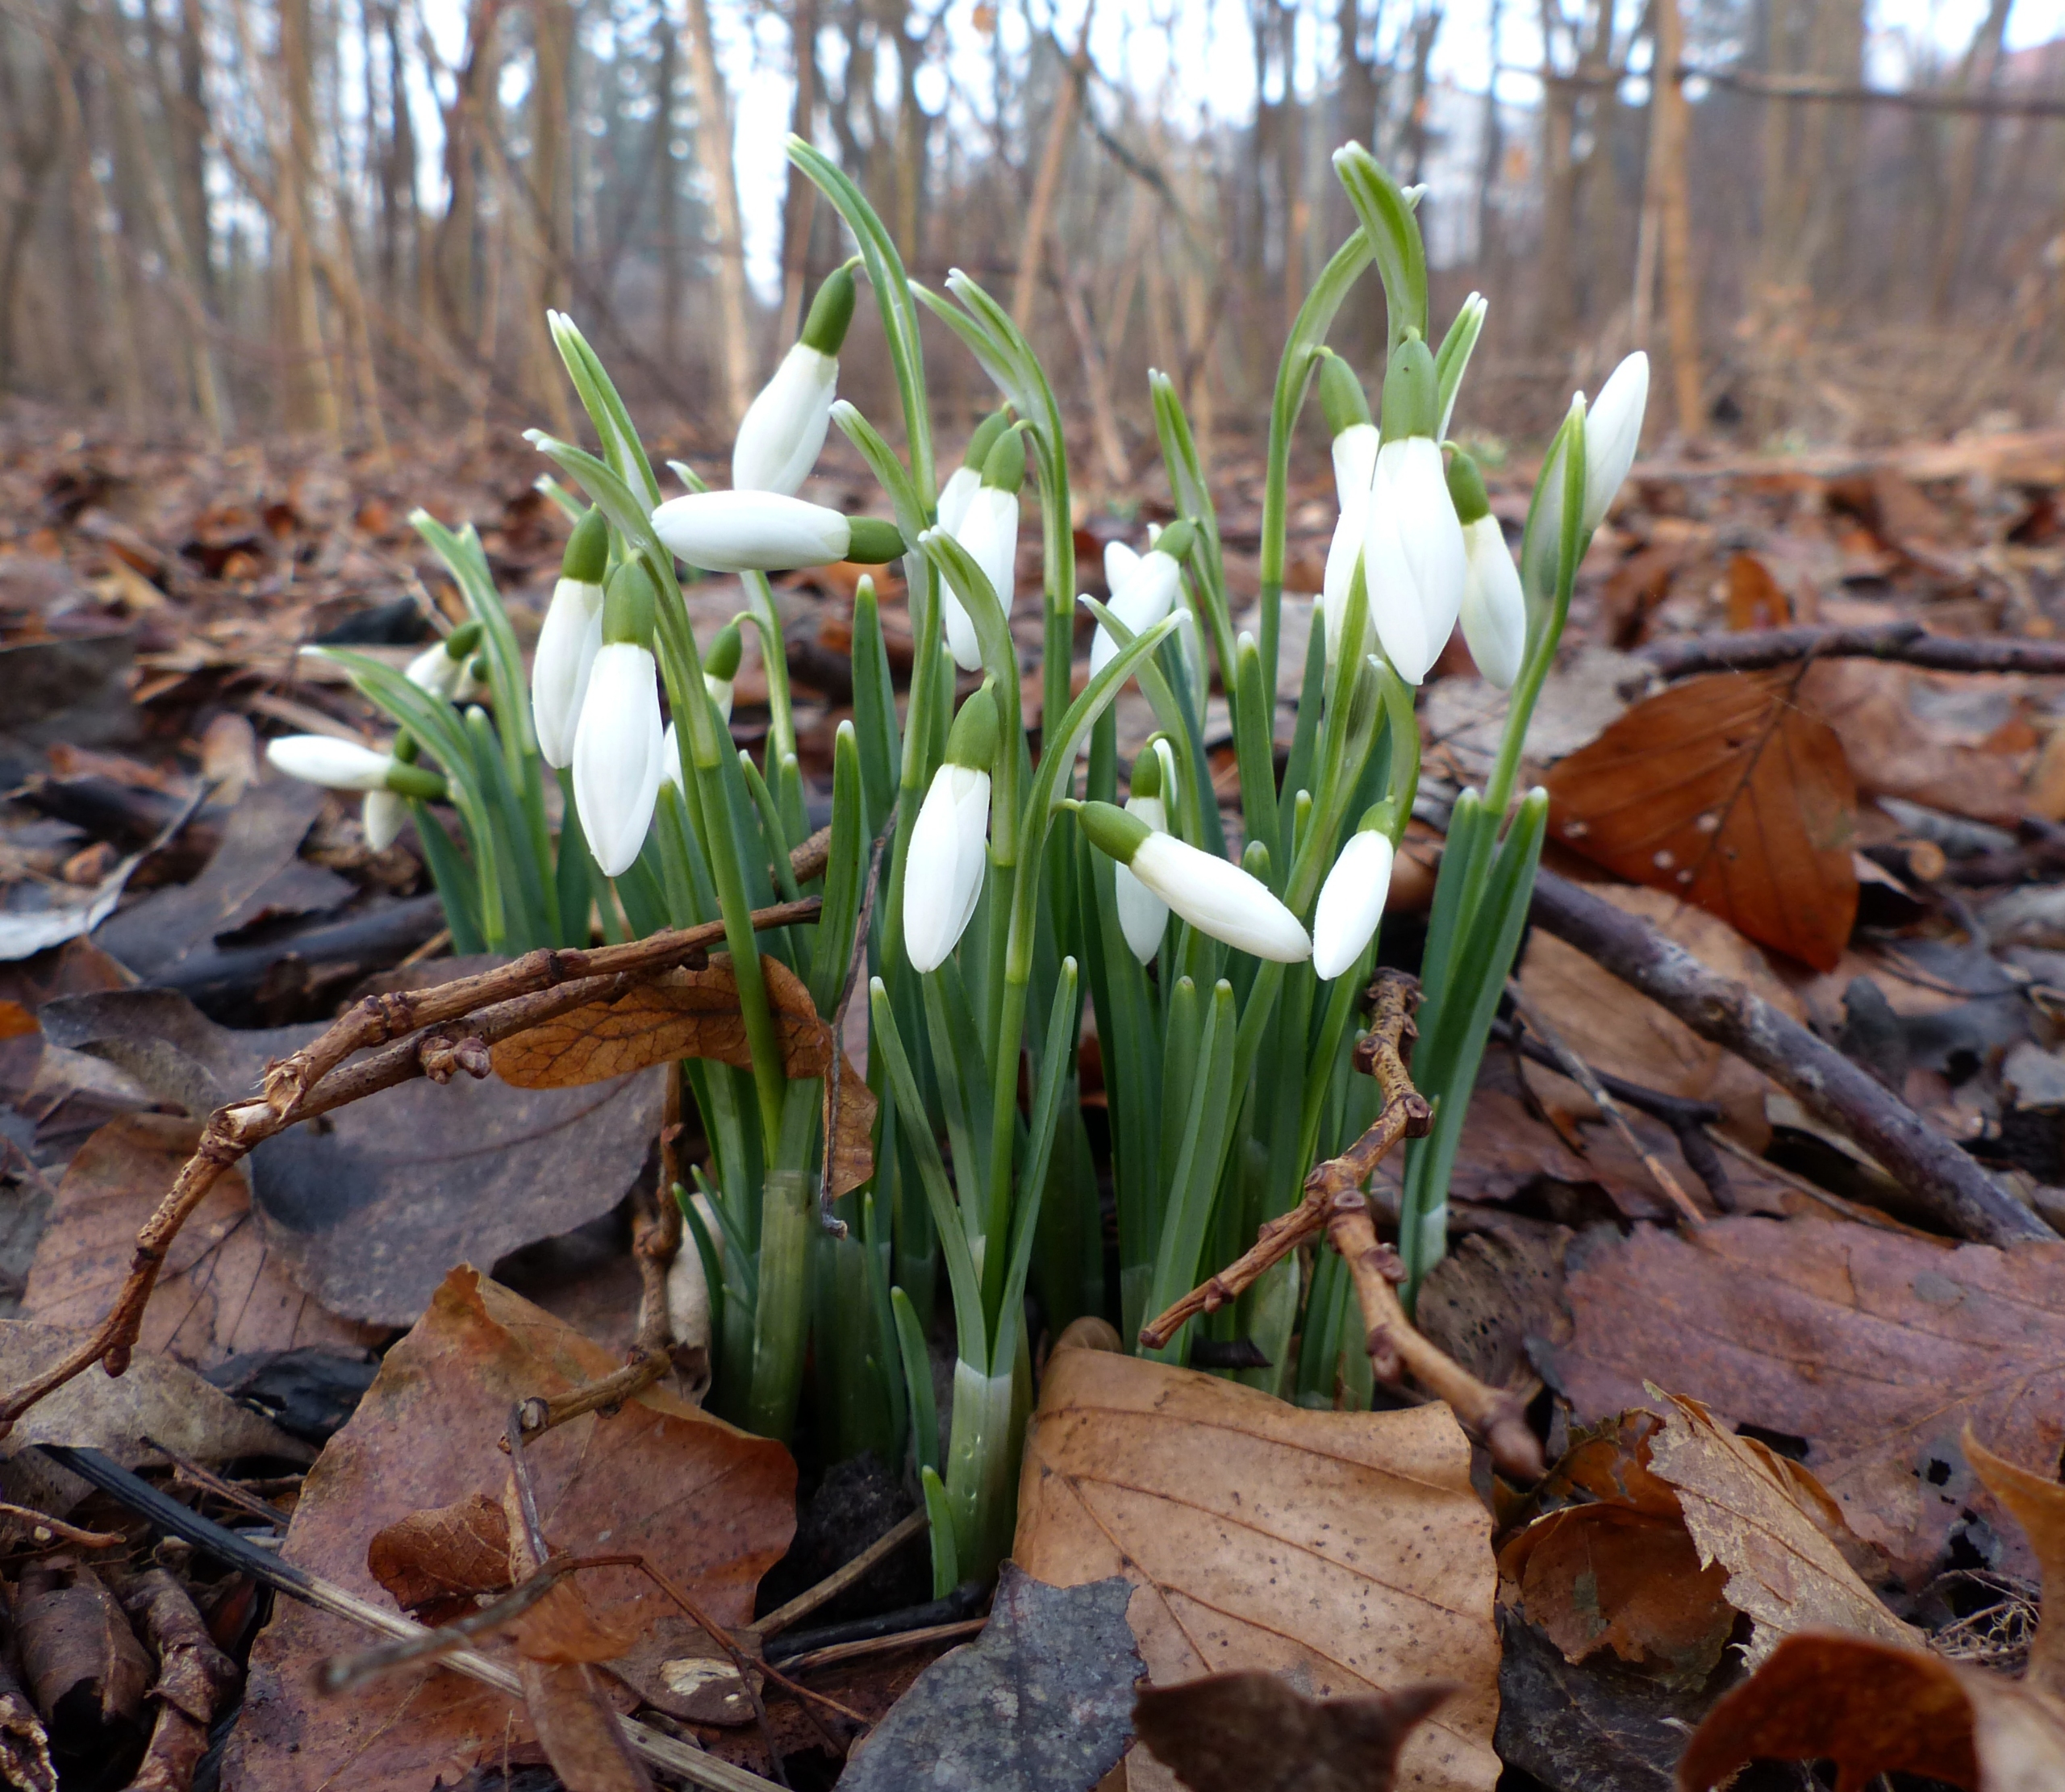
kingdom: Plantae
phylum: Tracheophyta
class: Liliopsida
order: Asparagales
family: Amaryllidaceae
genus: Galanthus
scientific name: Galanthus nivalis
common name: Vintergæk
